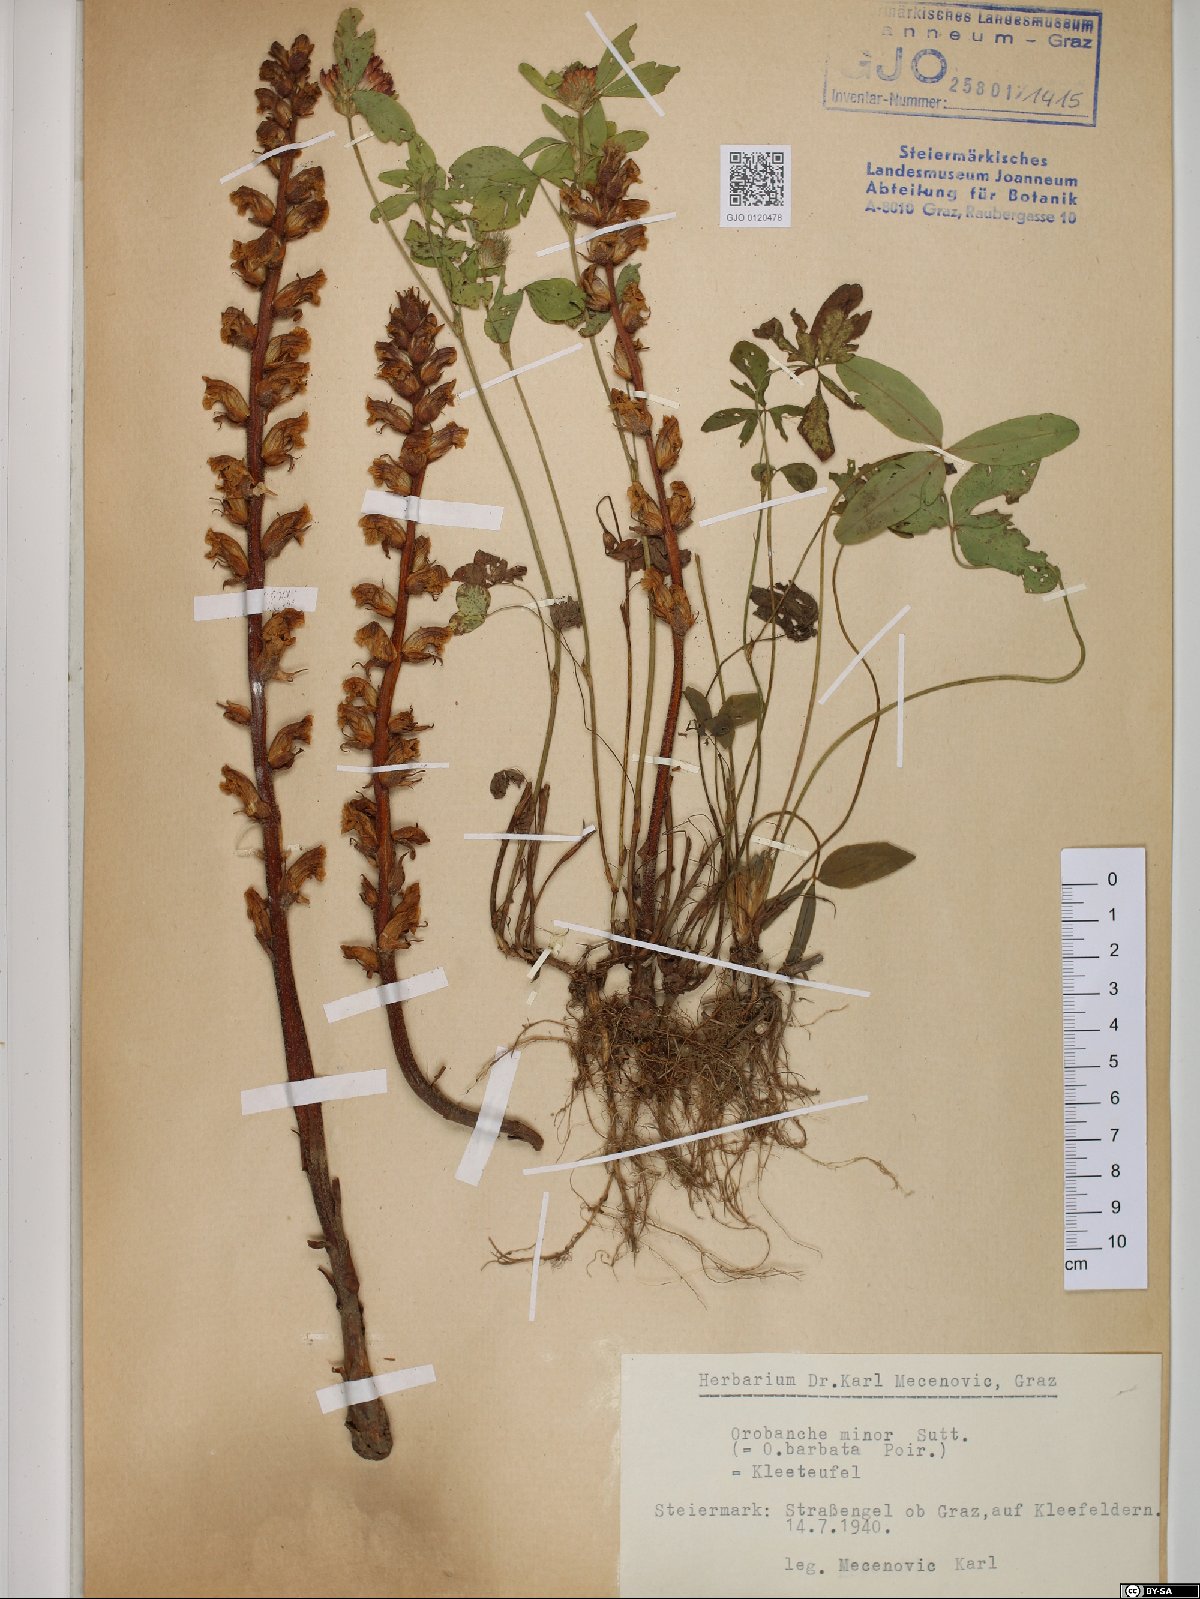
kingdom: Plantae
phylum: Tracheophyta
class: Magnoliopsida
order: Lamiales
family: Orobanchaceae
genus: Orobanche
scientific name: Orobanche minor
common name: Common broomrape
